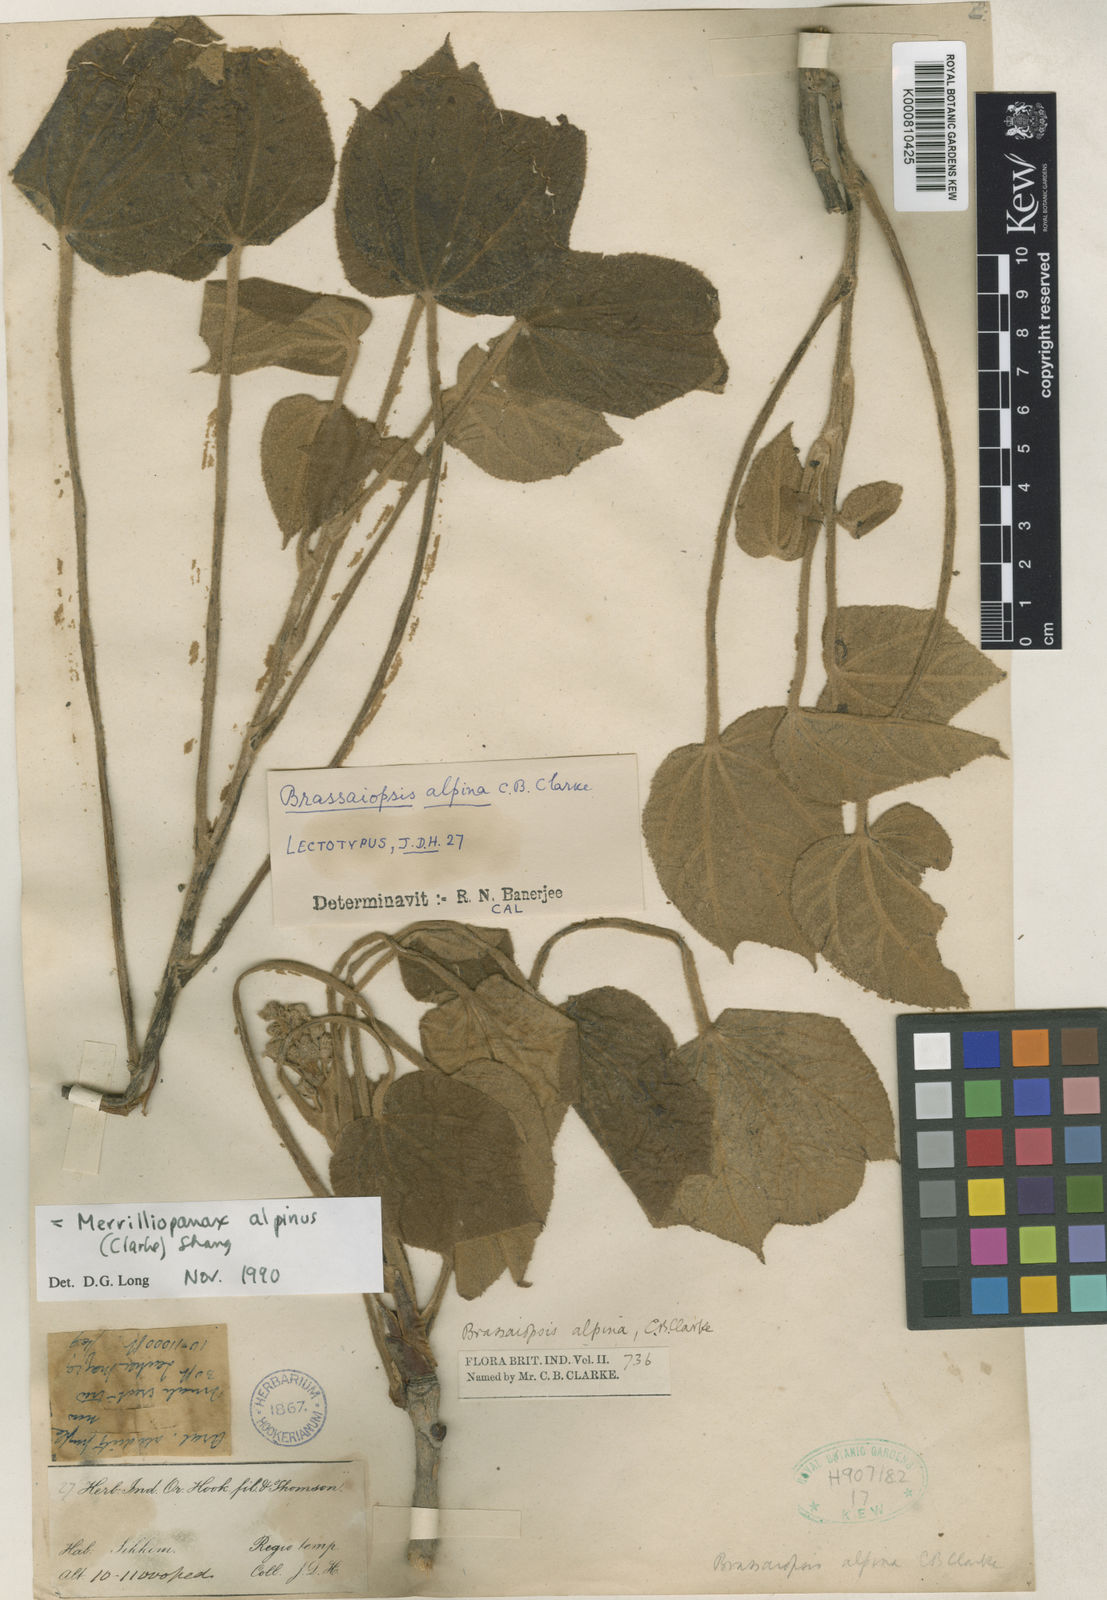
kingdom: Plantae
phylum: Tracheophyta
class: Magnoliopsida
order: Apiales
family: Araliaceae
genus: Merrilliopanax
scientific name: Merrilliopanax alpinus
